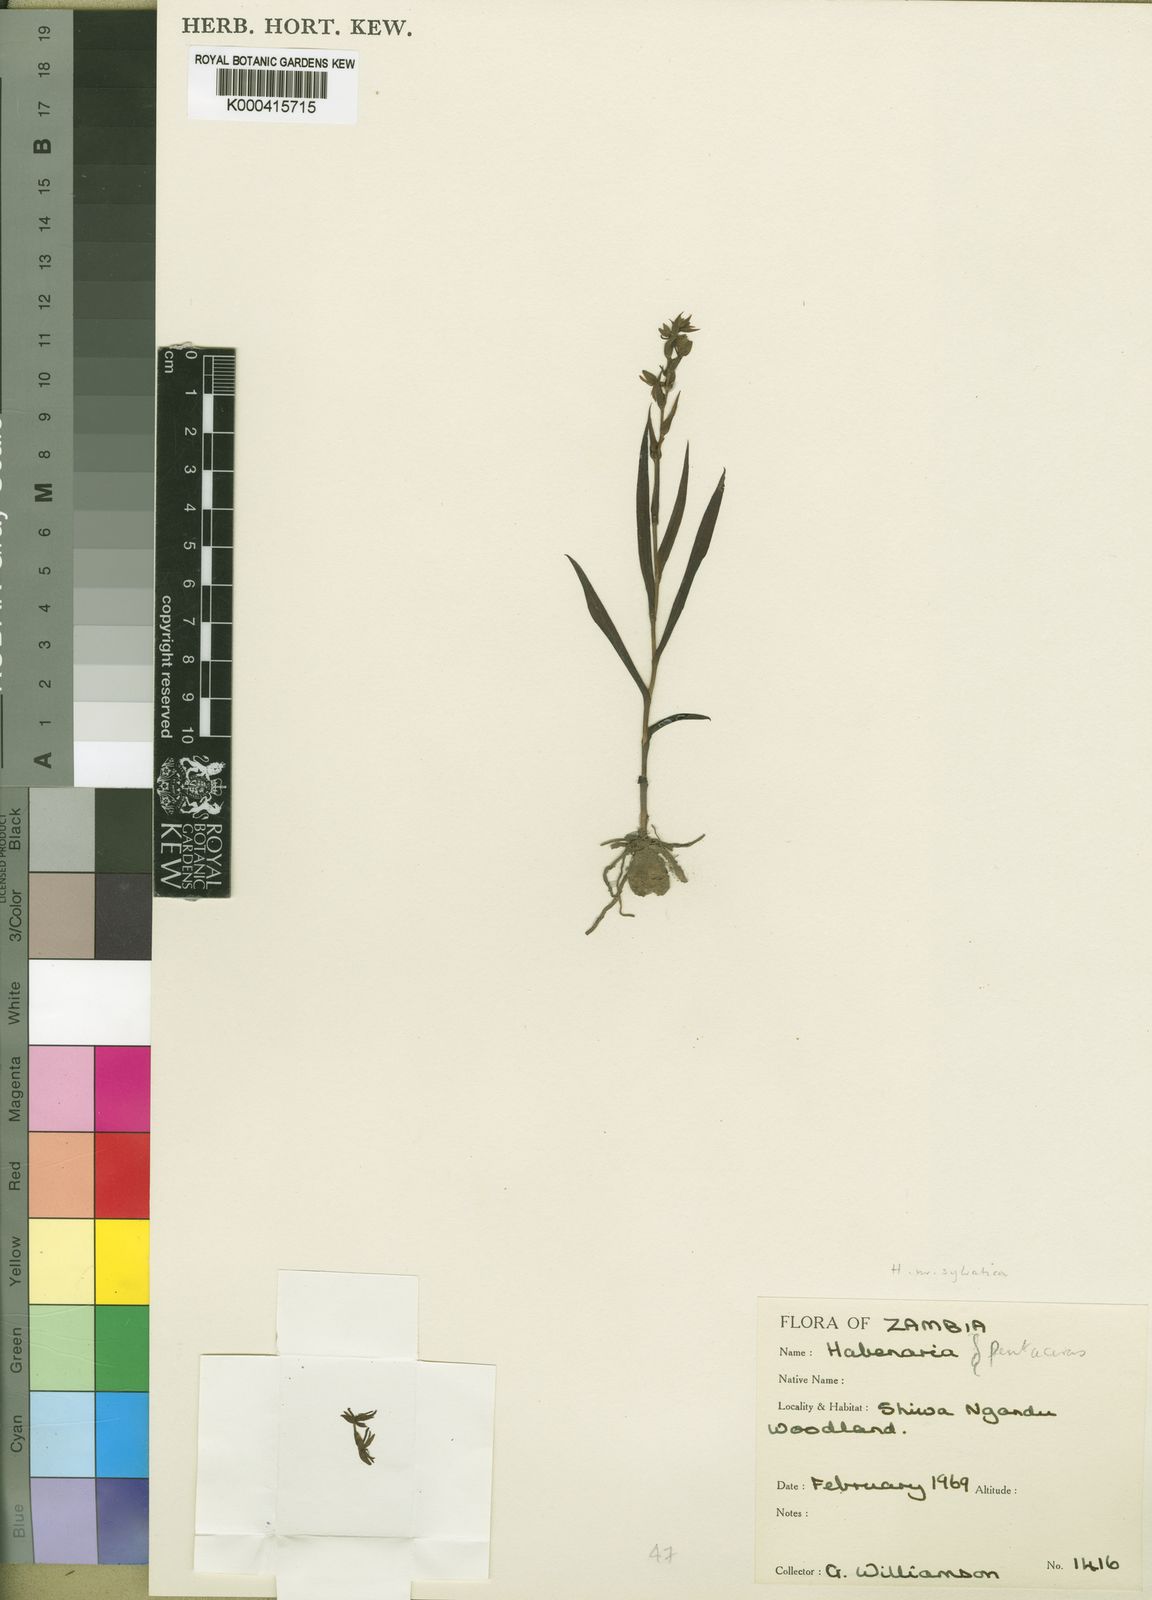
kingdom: Plantae
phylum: Tracheophyta
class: Liliopsida
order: Asparagales
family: Orchidaceae
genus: Habenaria
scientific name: Habenaria silvatica
